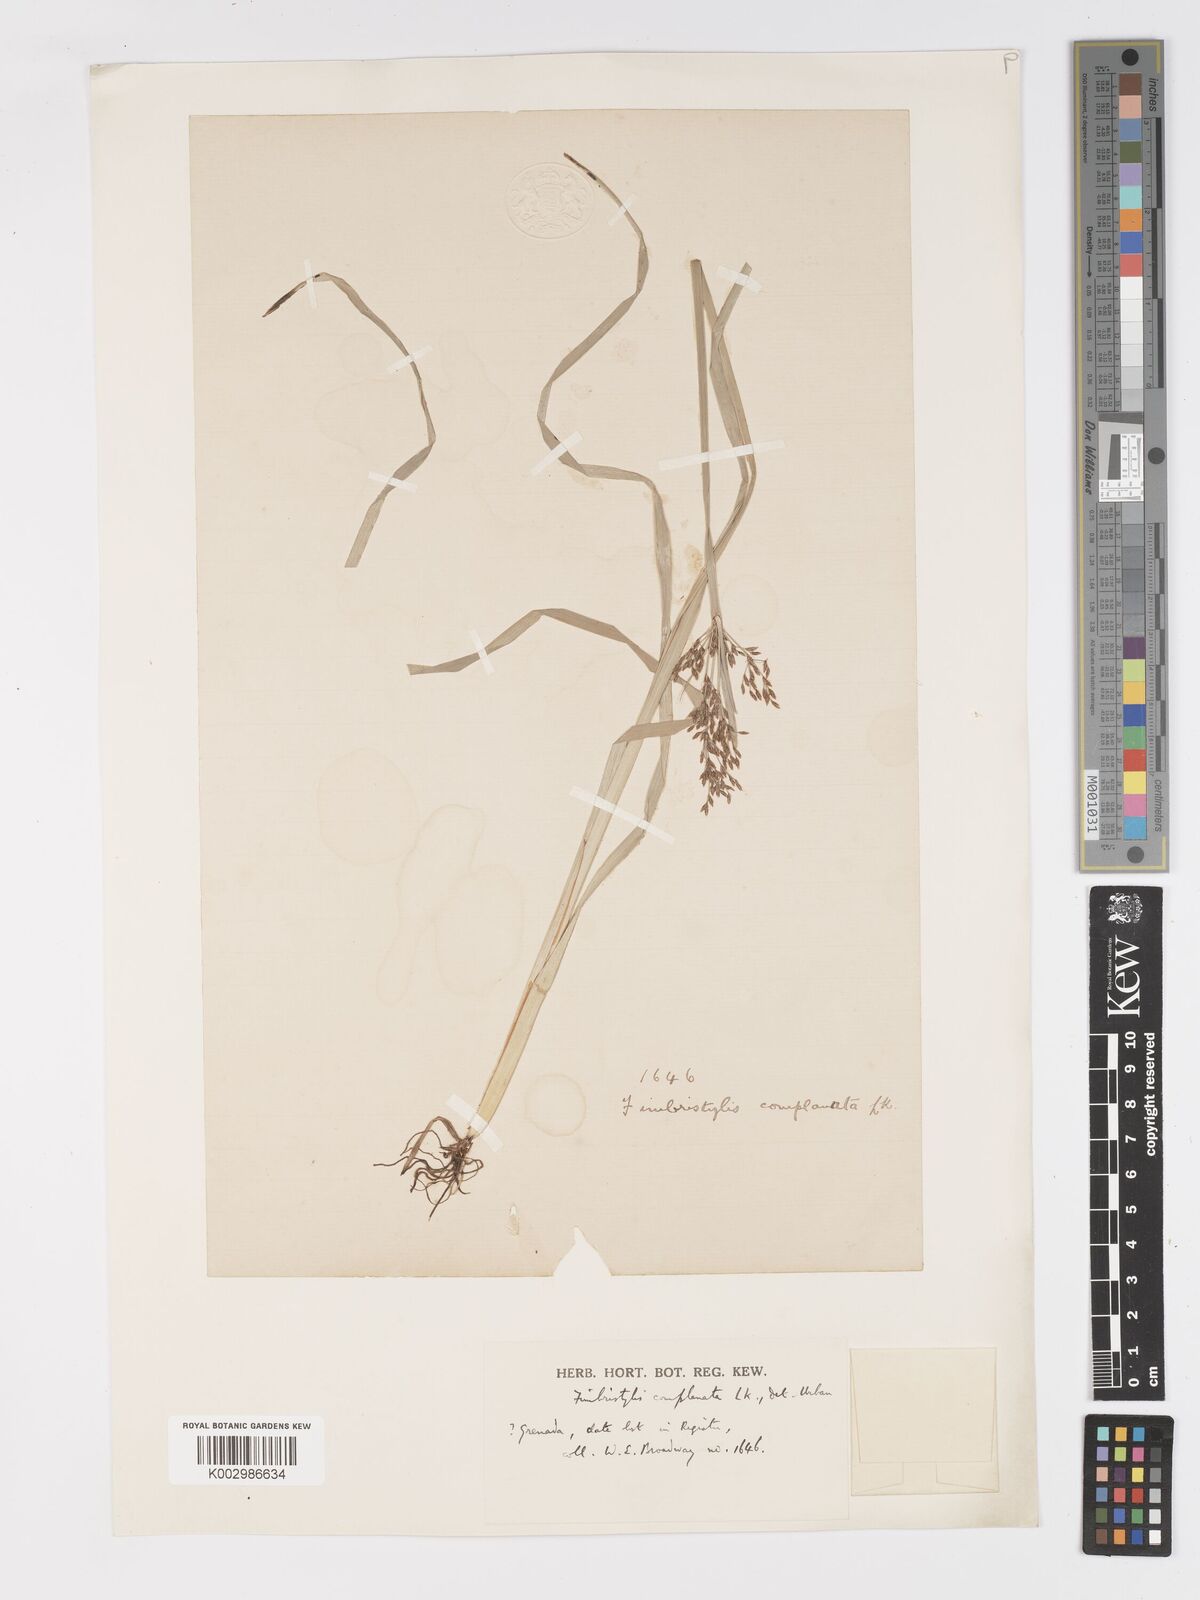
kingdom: Plantae
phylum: Tracheophyta
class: Liliopsida
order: Poales
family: Cyperaceae
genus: Fimbristylis
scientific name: Fimbristylis complanata
